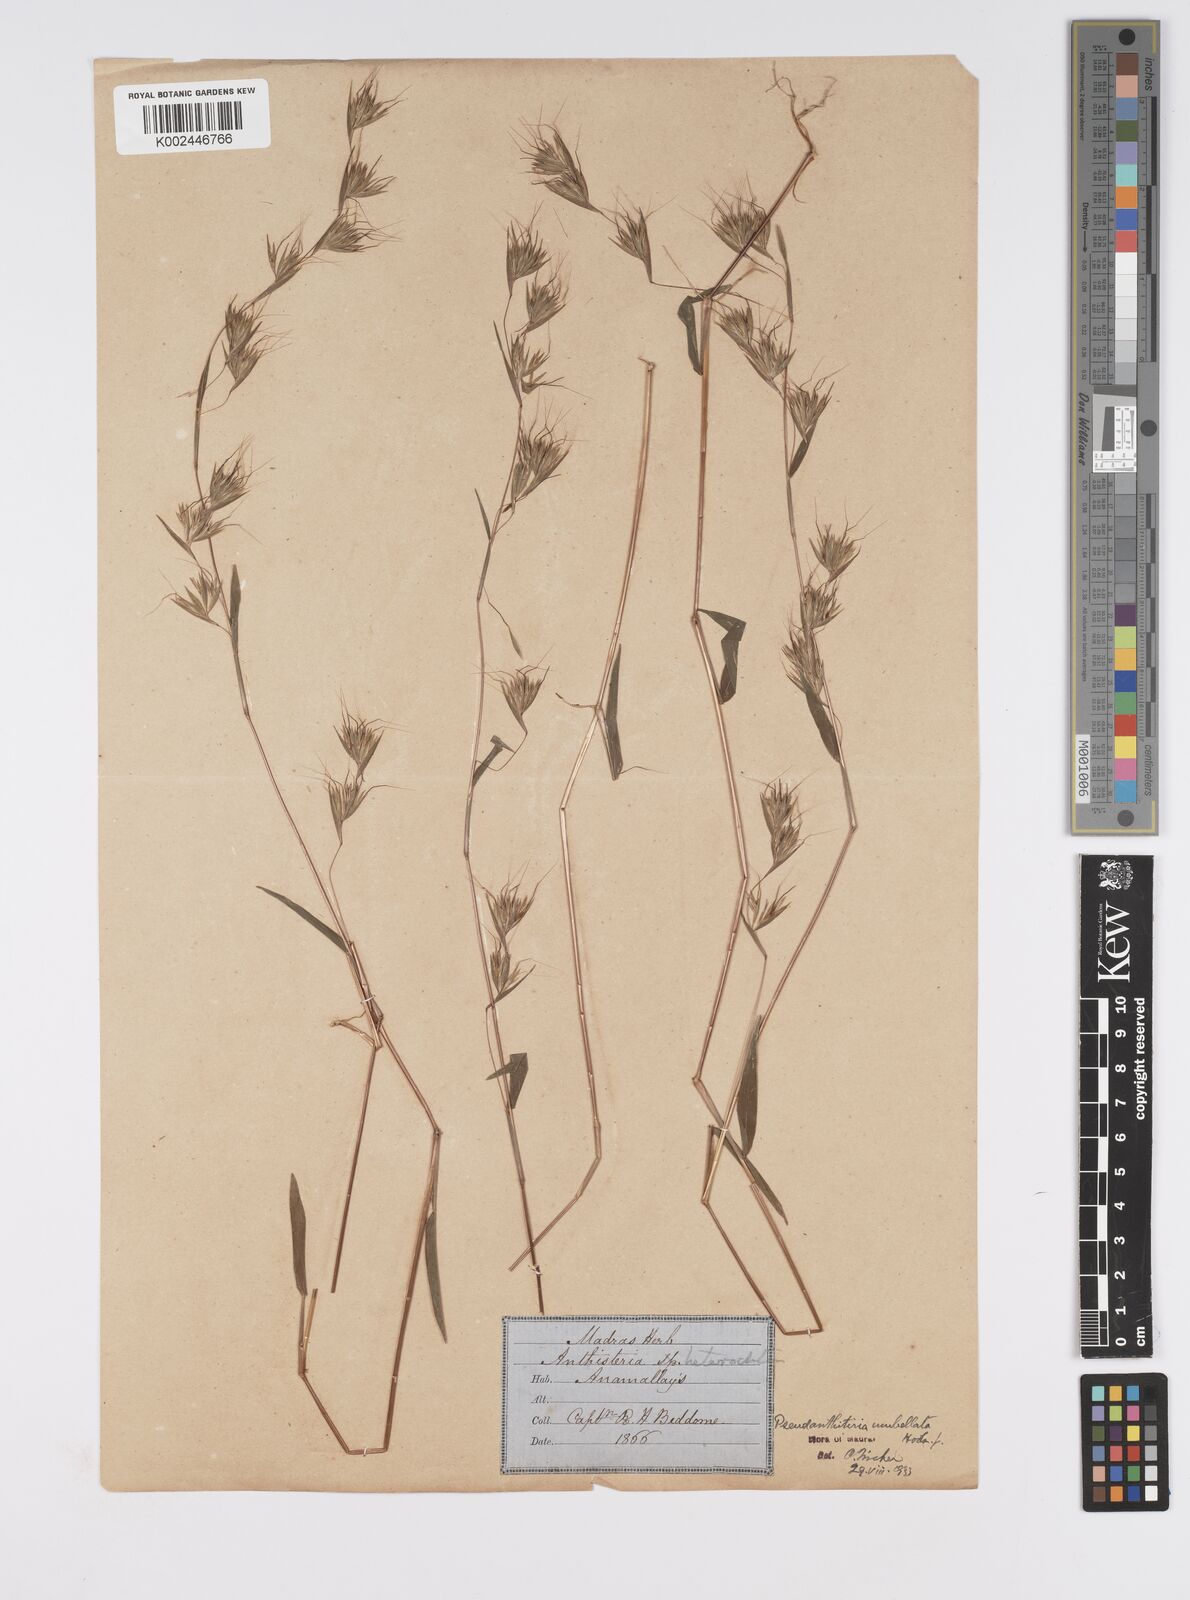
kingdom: Plantae
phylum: Tracheophyta
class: Liliopsida
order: Poales
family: Poaceae
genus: Pseudanthistiria
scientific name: Pseudanthistiria umbellata
